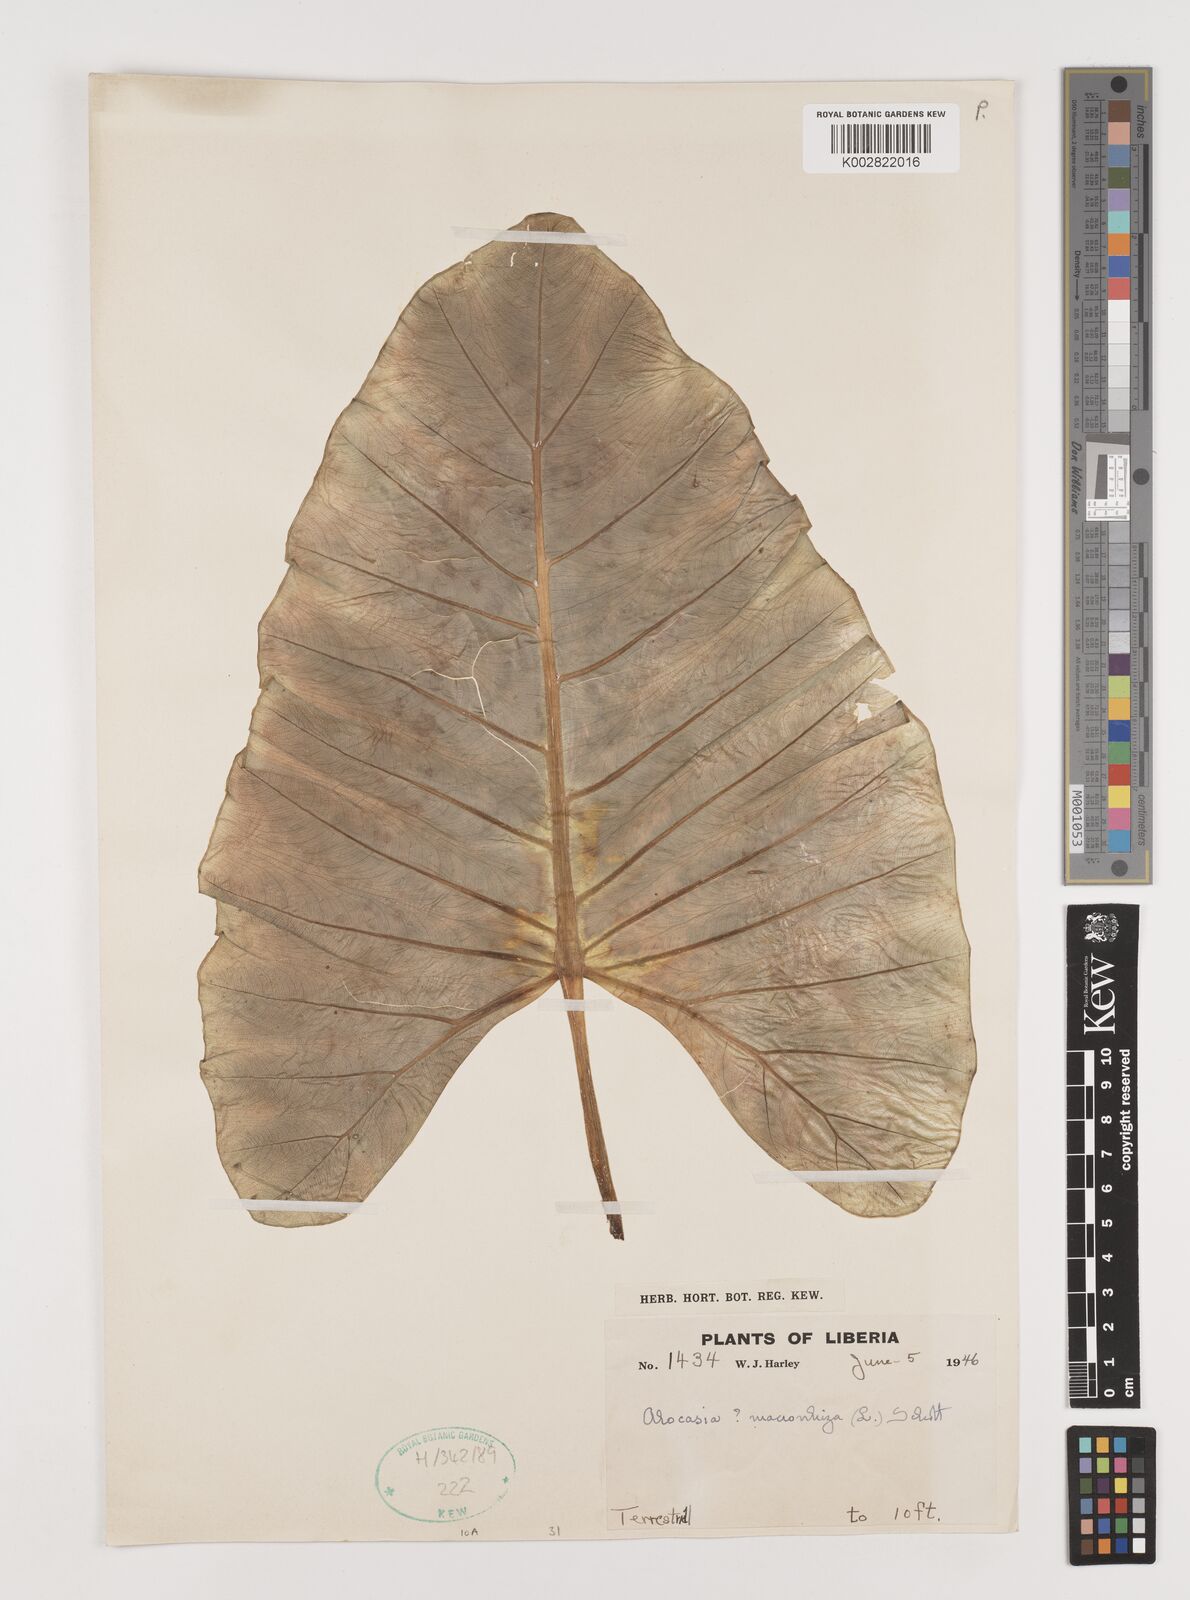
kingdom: Plantae
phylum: Tracheophyta
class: Liliopsida
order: Alismatales
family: Araceae
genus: Alocasia
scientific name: Alocasia macrorrhizos
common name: Giant taro
